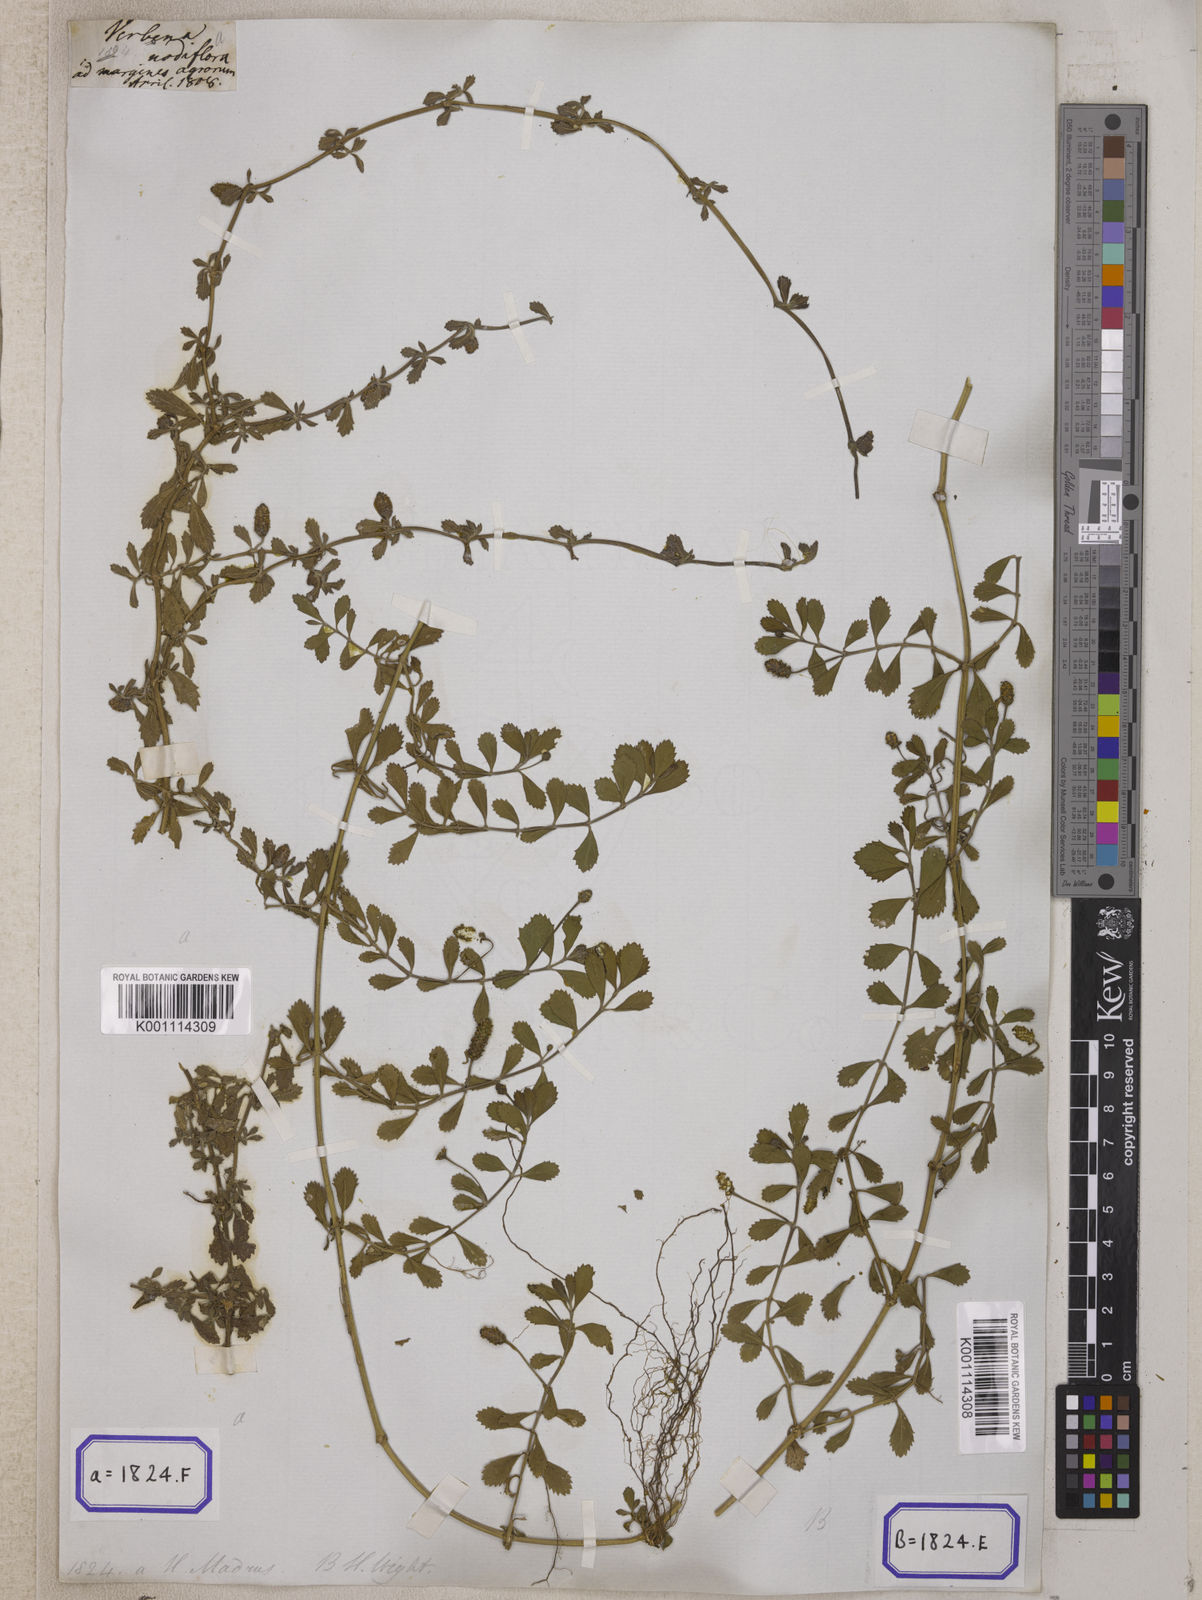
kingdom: Plantae
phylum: Tracheophyta
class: Magnoliopsida
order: Lamiales
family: Verbenaceae
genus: Phyla
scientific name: Phyla nodiflora
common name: Frogfruit
